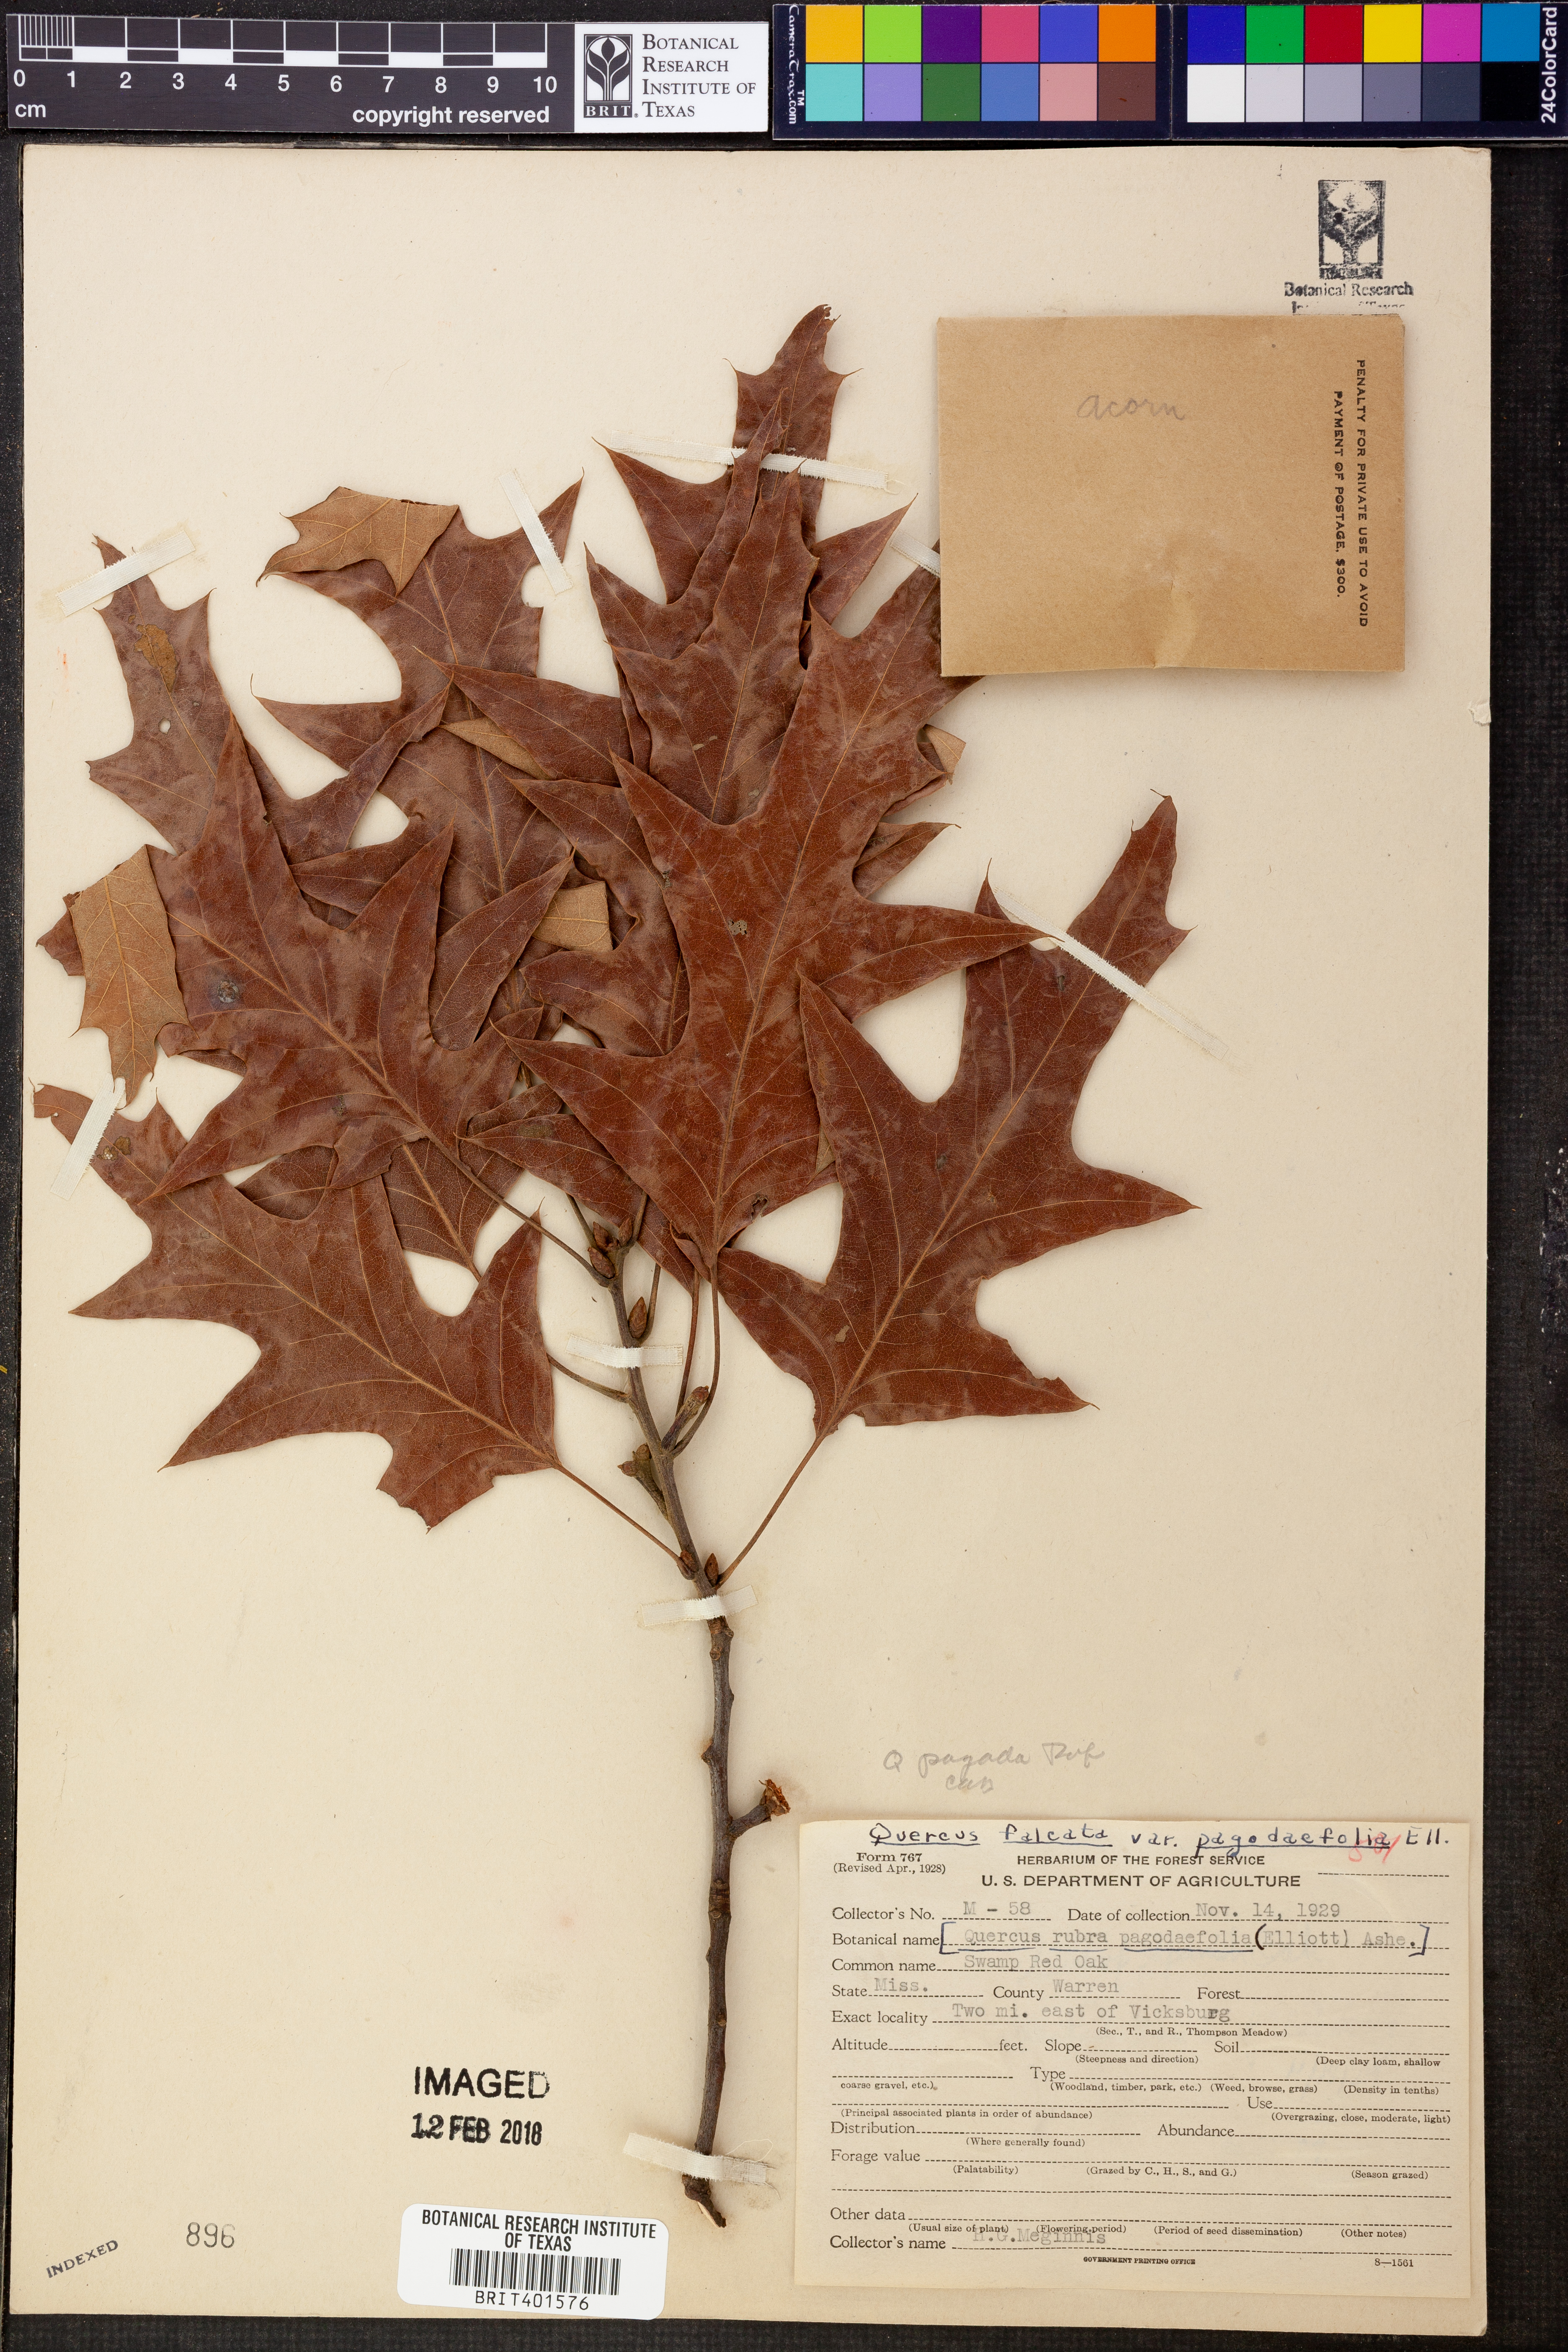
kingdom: Plantae
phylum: Tracheophyta
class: Magnoliopsida
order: Fagales
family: Fagaceae
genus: Quercus
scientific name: Quercus pagoda
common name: Cherrybark oak
